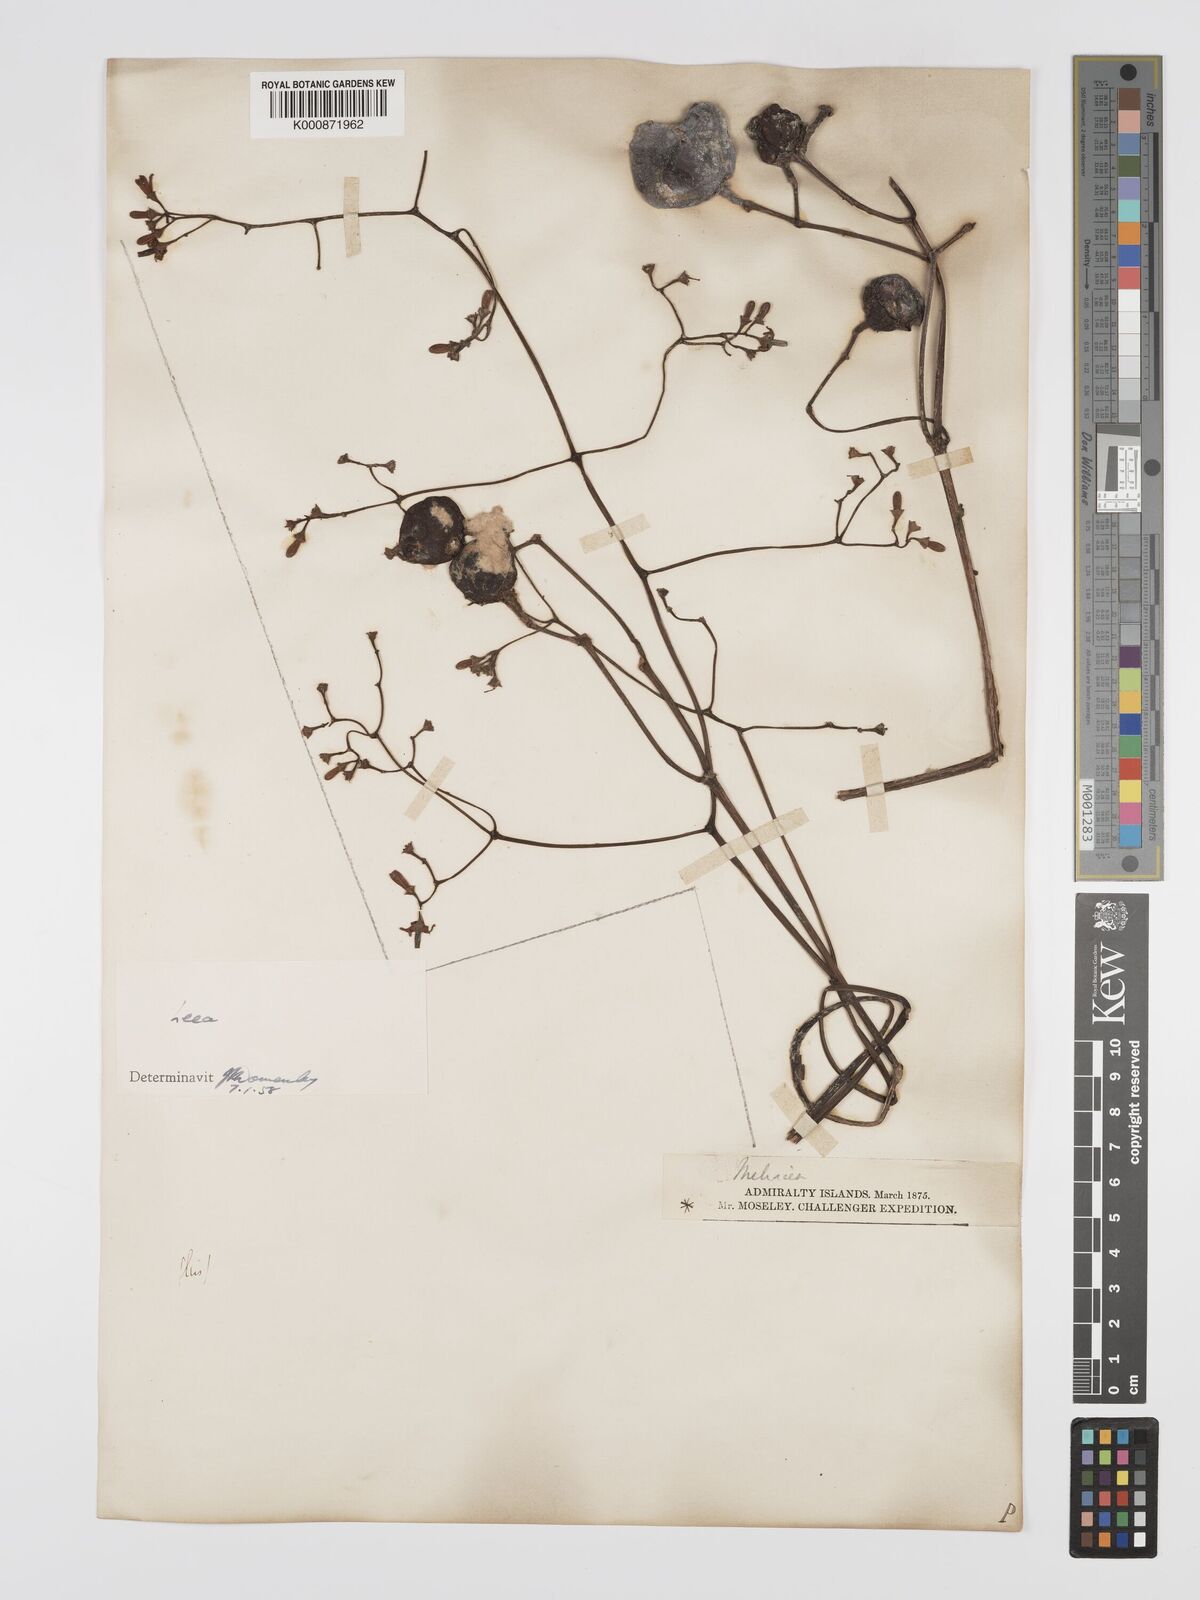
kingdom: Plantae
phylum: Tracheophyta
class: Magnoliopsida
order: Vitales
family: Vitaceae
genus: Leea
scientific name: Leea
